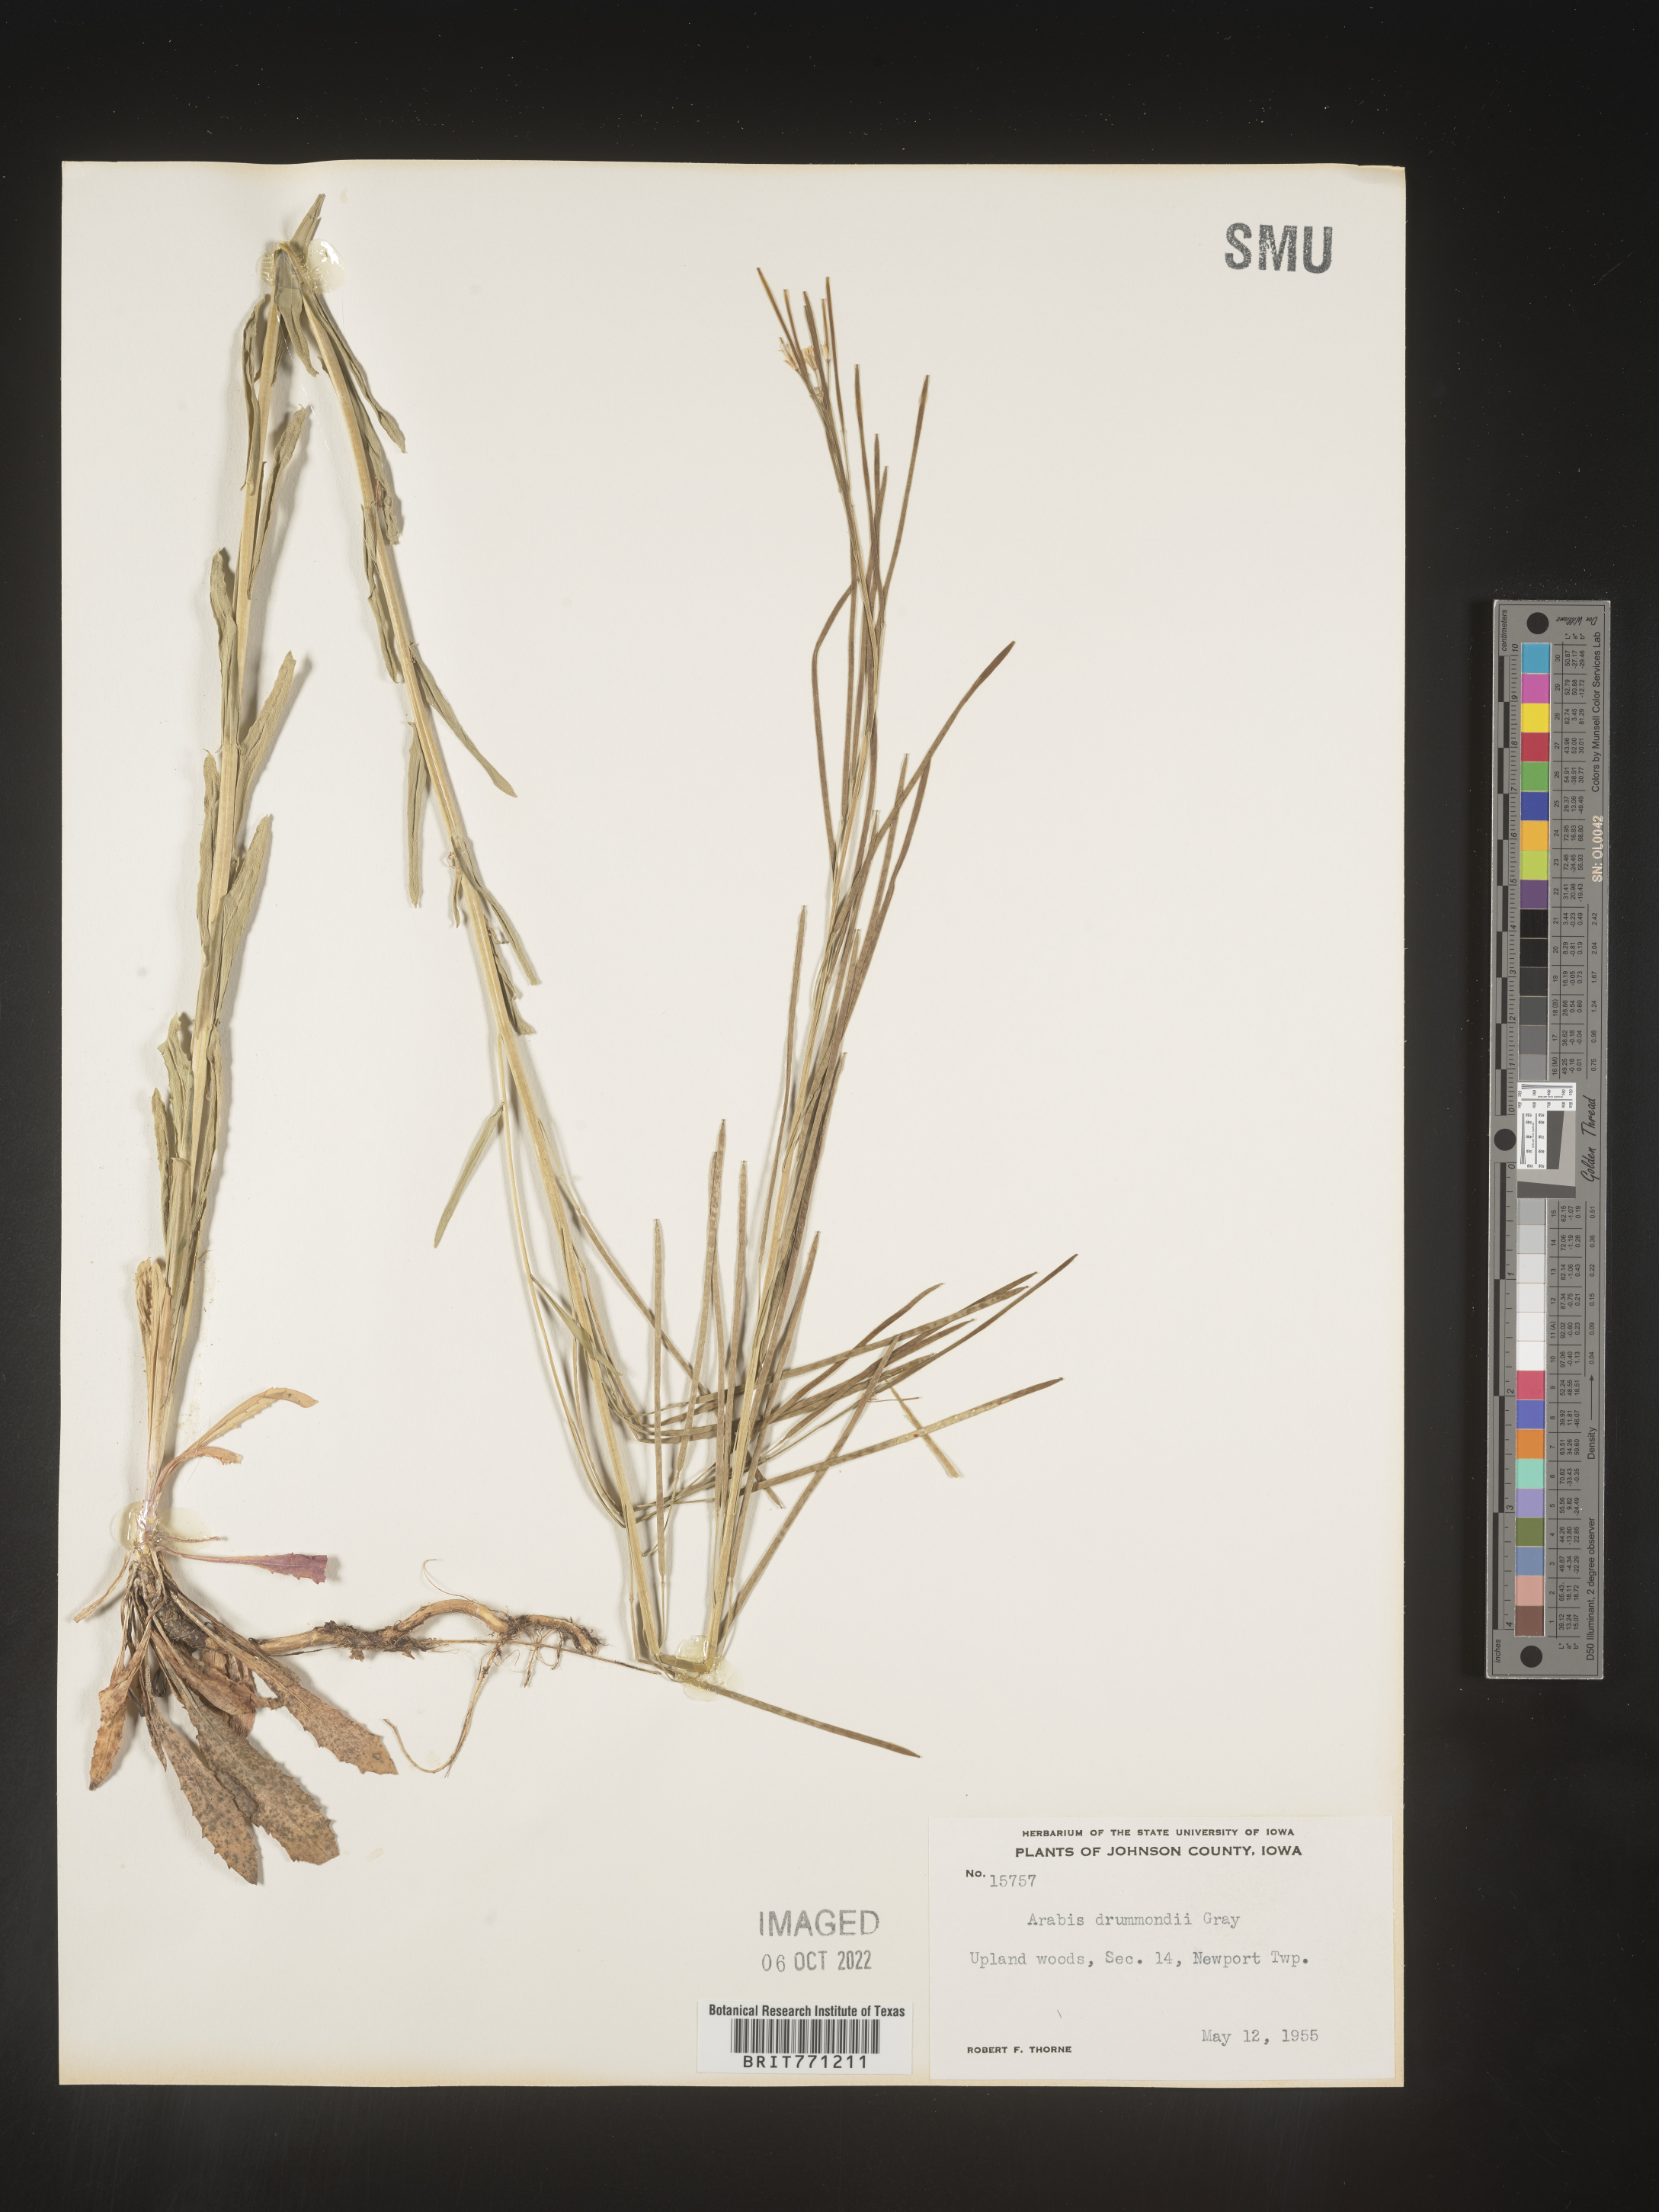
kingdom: Plantae
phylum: Tracheophyta
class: Magnoliopsida
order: Brassicales
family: Brassicaceae
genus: Boechera
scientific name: Boechera stricta
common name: Canadian rockcress
